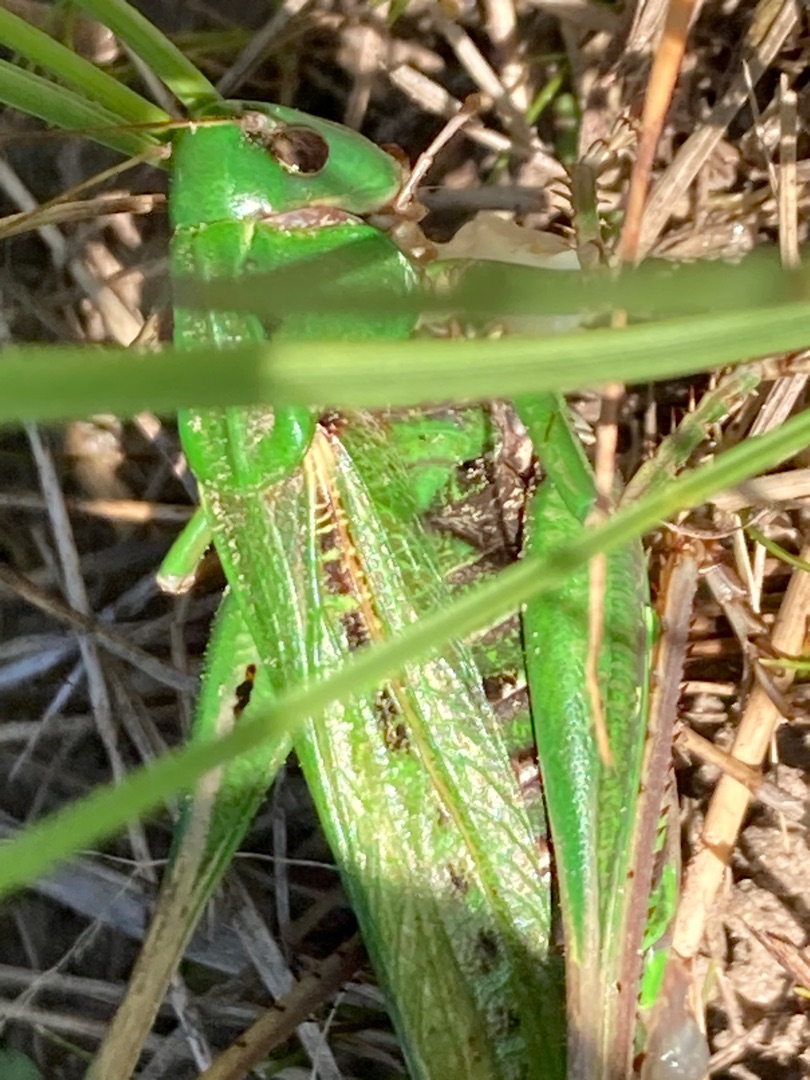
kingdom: Animalia
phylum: Arthropoda
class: Insecta
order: Orthoptera
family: Tettigoniidae
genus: Decticus
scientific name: Decticus verrucivorus
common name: Vortebider
